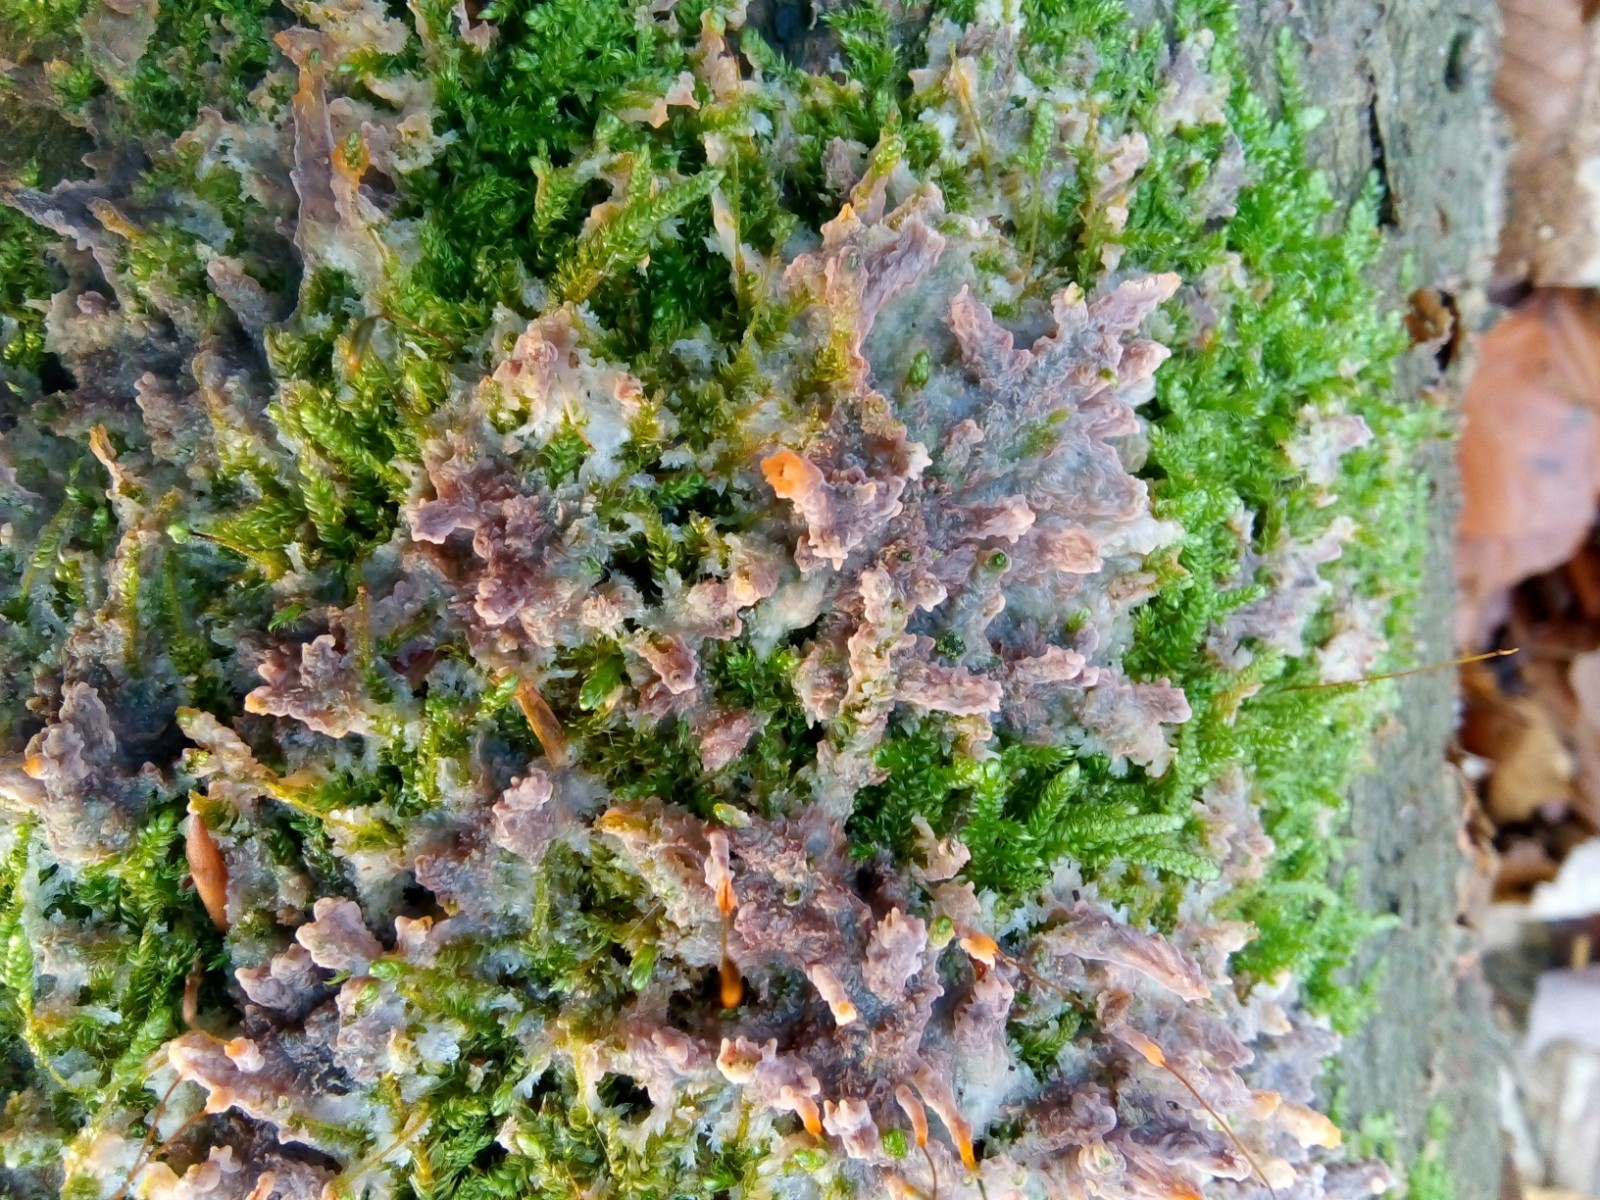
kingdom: Fungi
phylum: Basidiomycota
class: Agaricomycetes
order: Polyporales
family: Meruliaceae
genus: Phlebia
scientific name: Phlebia radiata
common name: stråle-åresvamp
